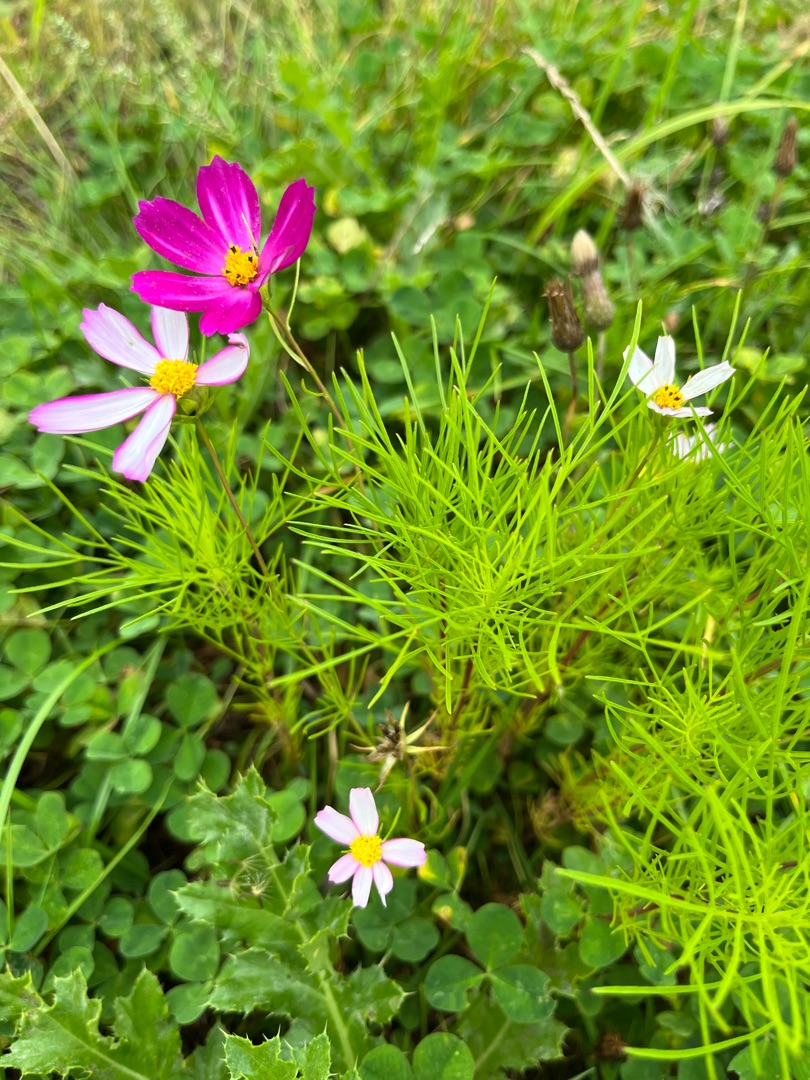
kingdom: Plantae
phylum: Tracheophyta
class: Magnoliopsida
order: Asterales
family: Asteraceae
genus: Cosmos
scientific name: Cosmos bipinnatus
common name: Stolt kavaler
